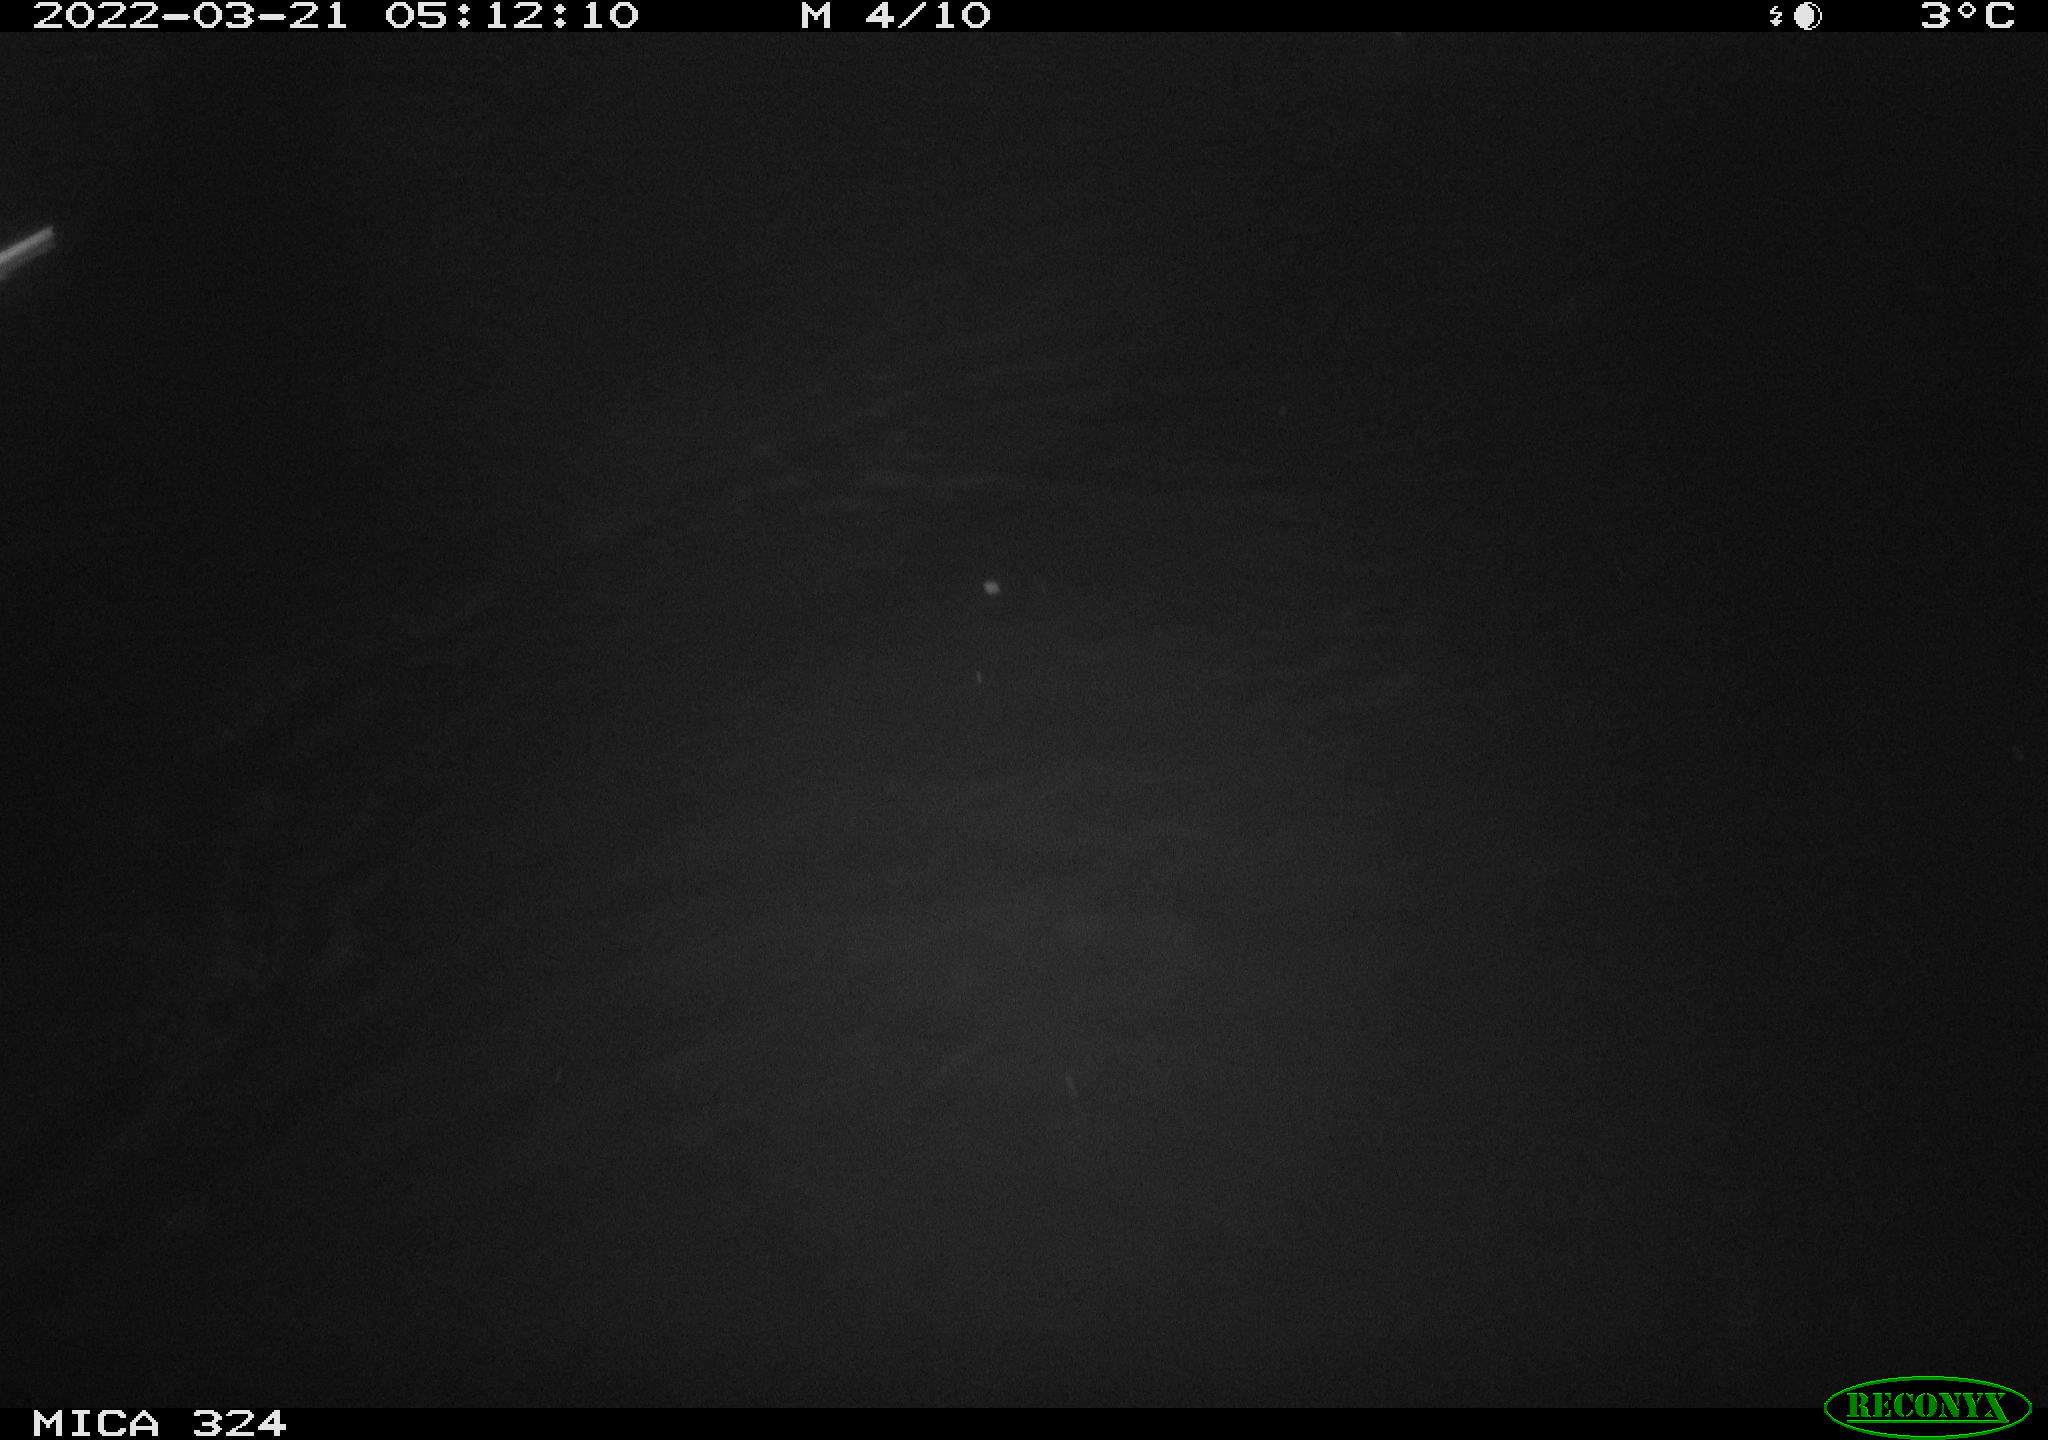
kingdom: Animalia
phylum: Chordata
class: Mammalia
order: Rodentia
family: Cricetidae
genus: Ondatra
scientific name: Ondatra zibethicus
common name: Muskrat
